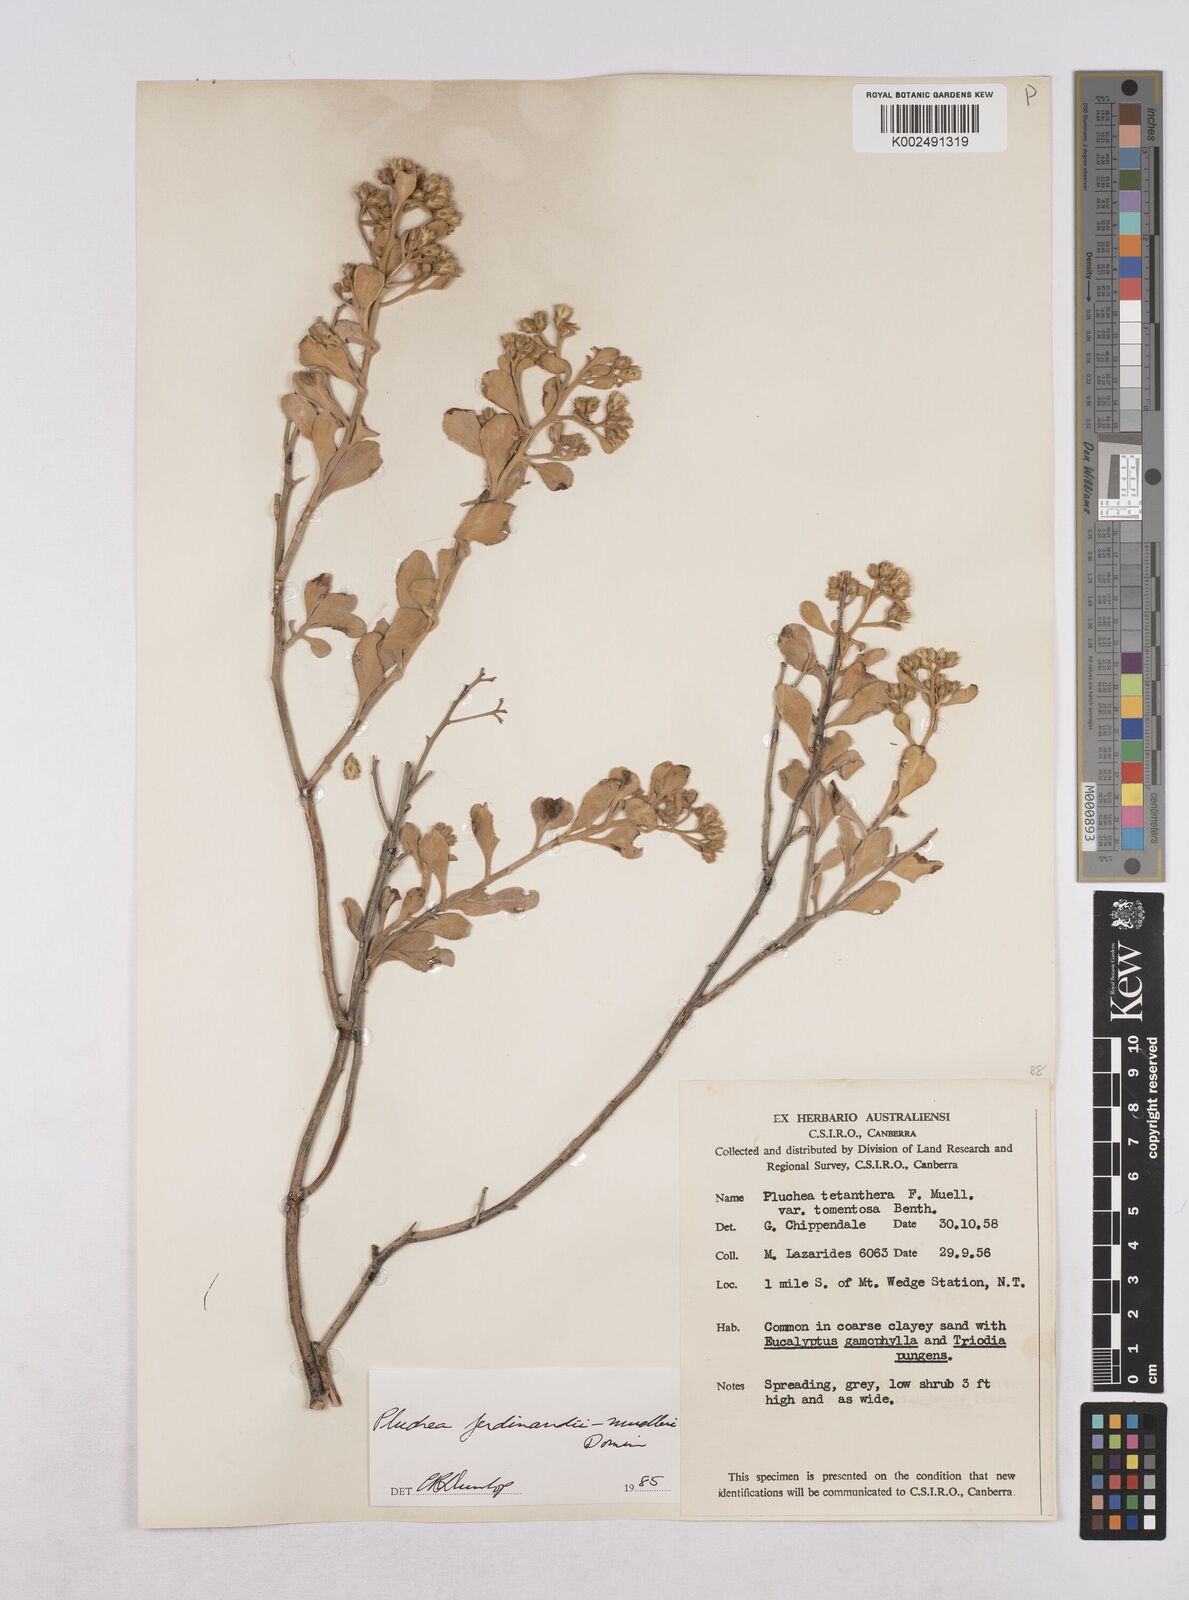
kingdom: Plantae
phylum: Tracheophyta
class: Magnoliopsida
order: Asterales
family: Asteraceae
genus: Pluchea
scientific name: Pluchea ferdinandi-muelleri
